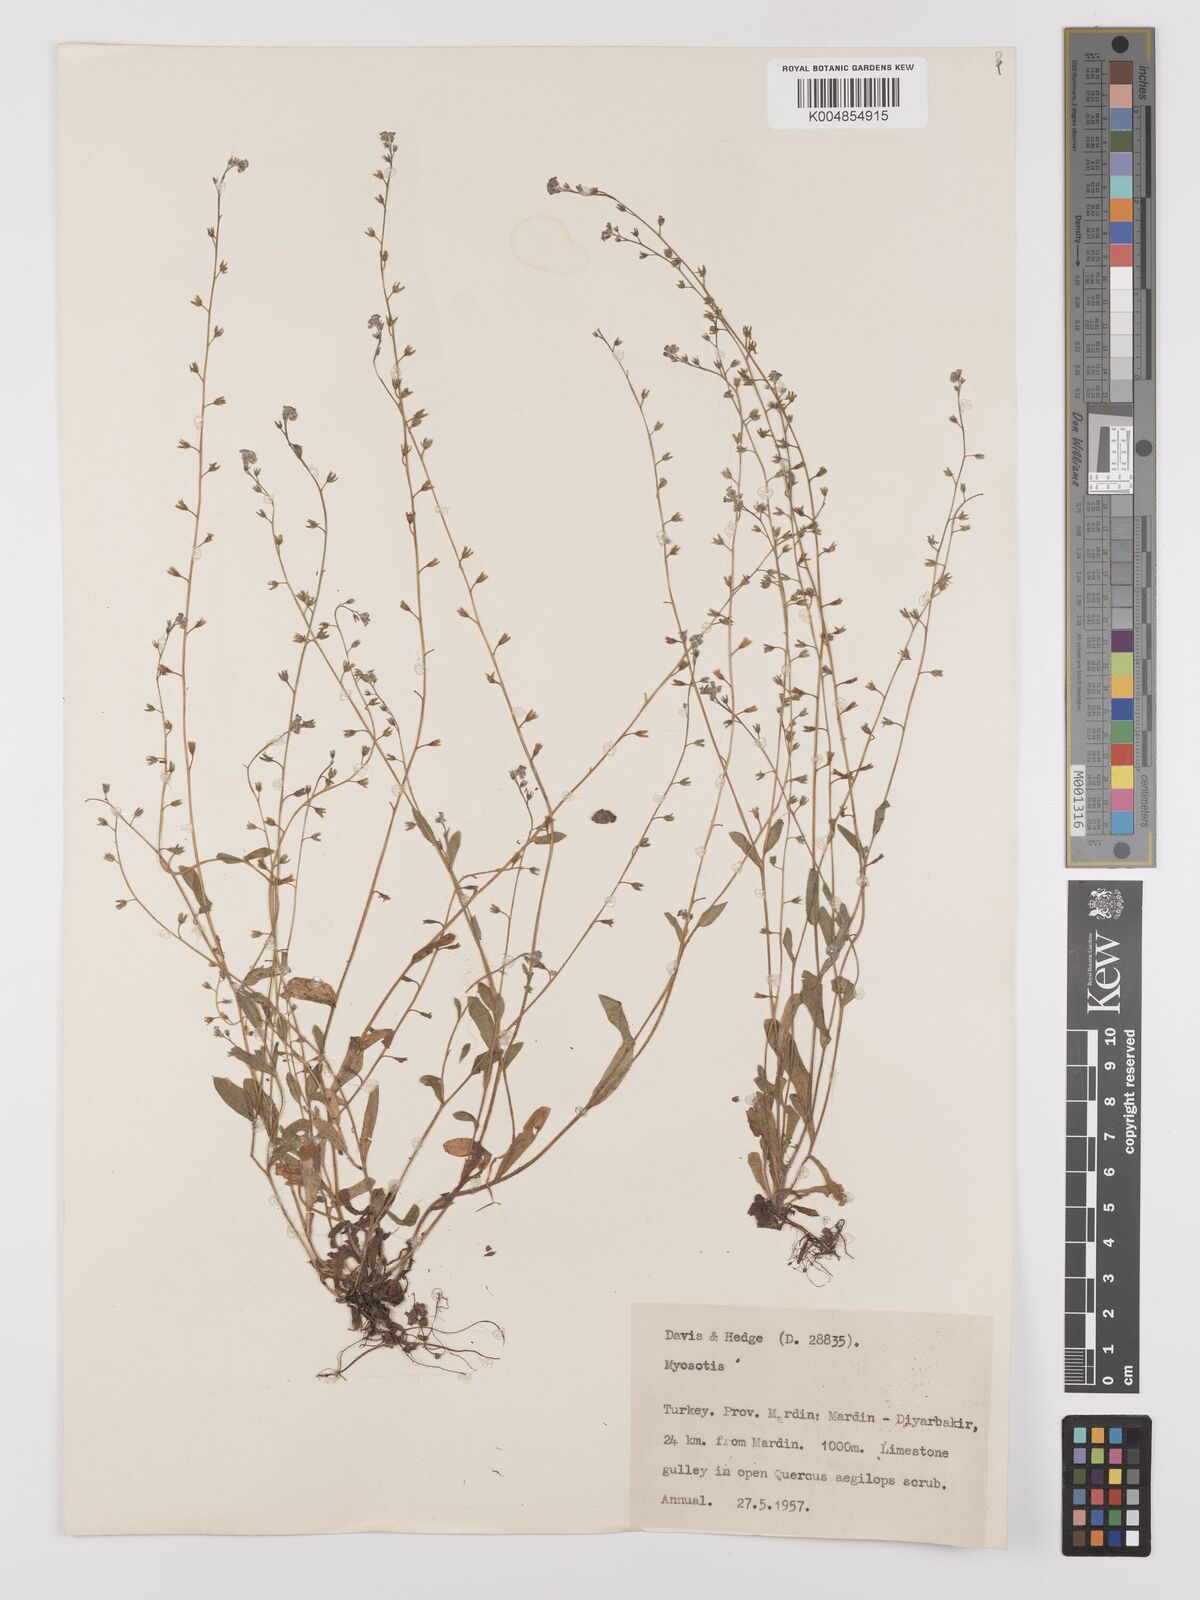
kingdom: Plantae
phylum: Tracheophyta
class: Magnoliopsida
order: Boraginales
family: Boraginaceae
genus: Myosotis
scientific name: Myosotis
